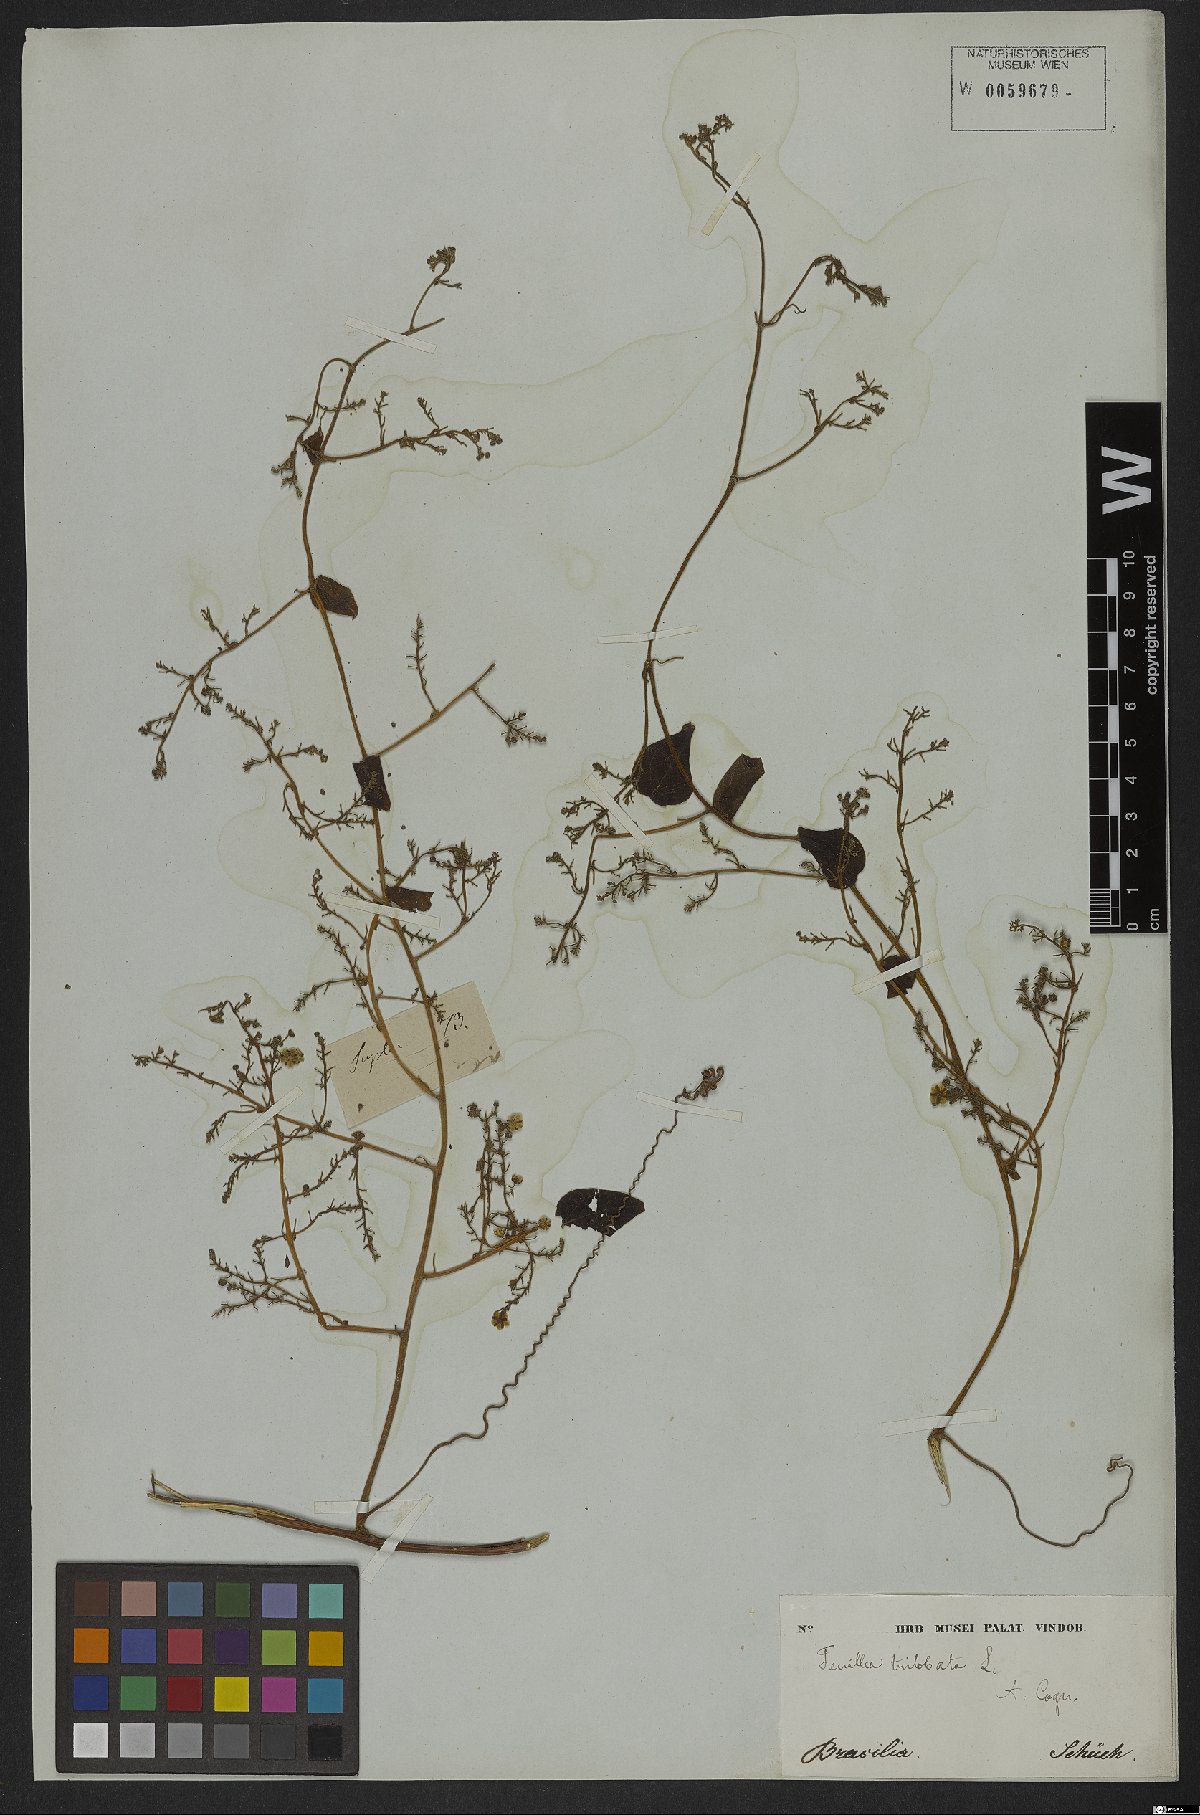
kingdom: Plantae
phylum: Tracheophyta
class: Magnoliopsida
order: Cucurbitales
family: Cucurbitaceae
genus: Fevillea
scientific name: Fevillea trilobata
